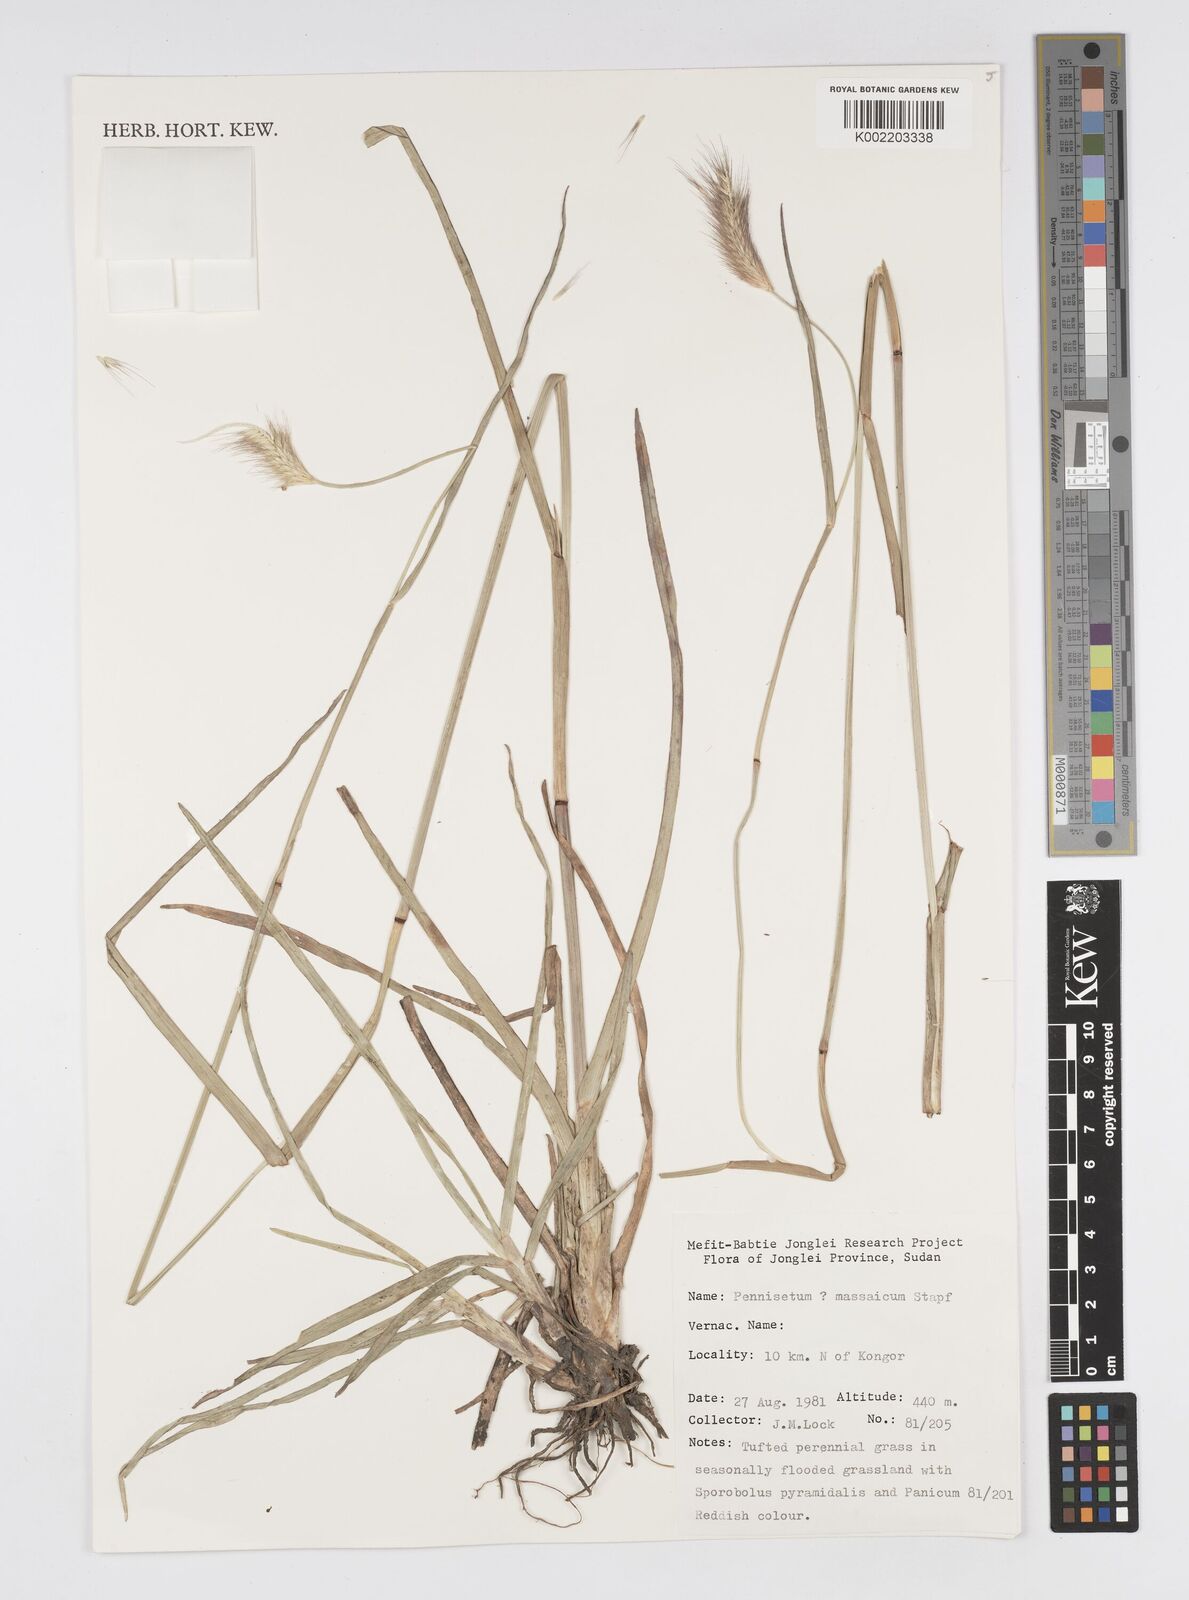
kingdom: Plantae
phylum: Tracheophyta
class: Liliopsida
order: Poales
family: Poaceae
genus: Cenchrus
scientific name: Cenchrus ramosus
